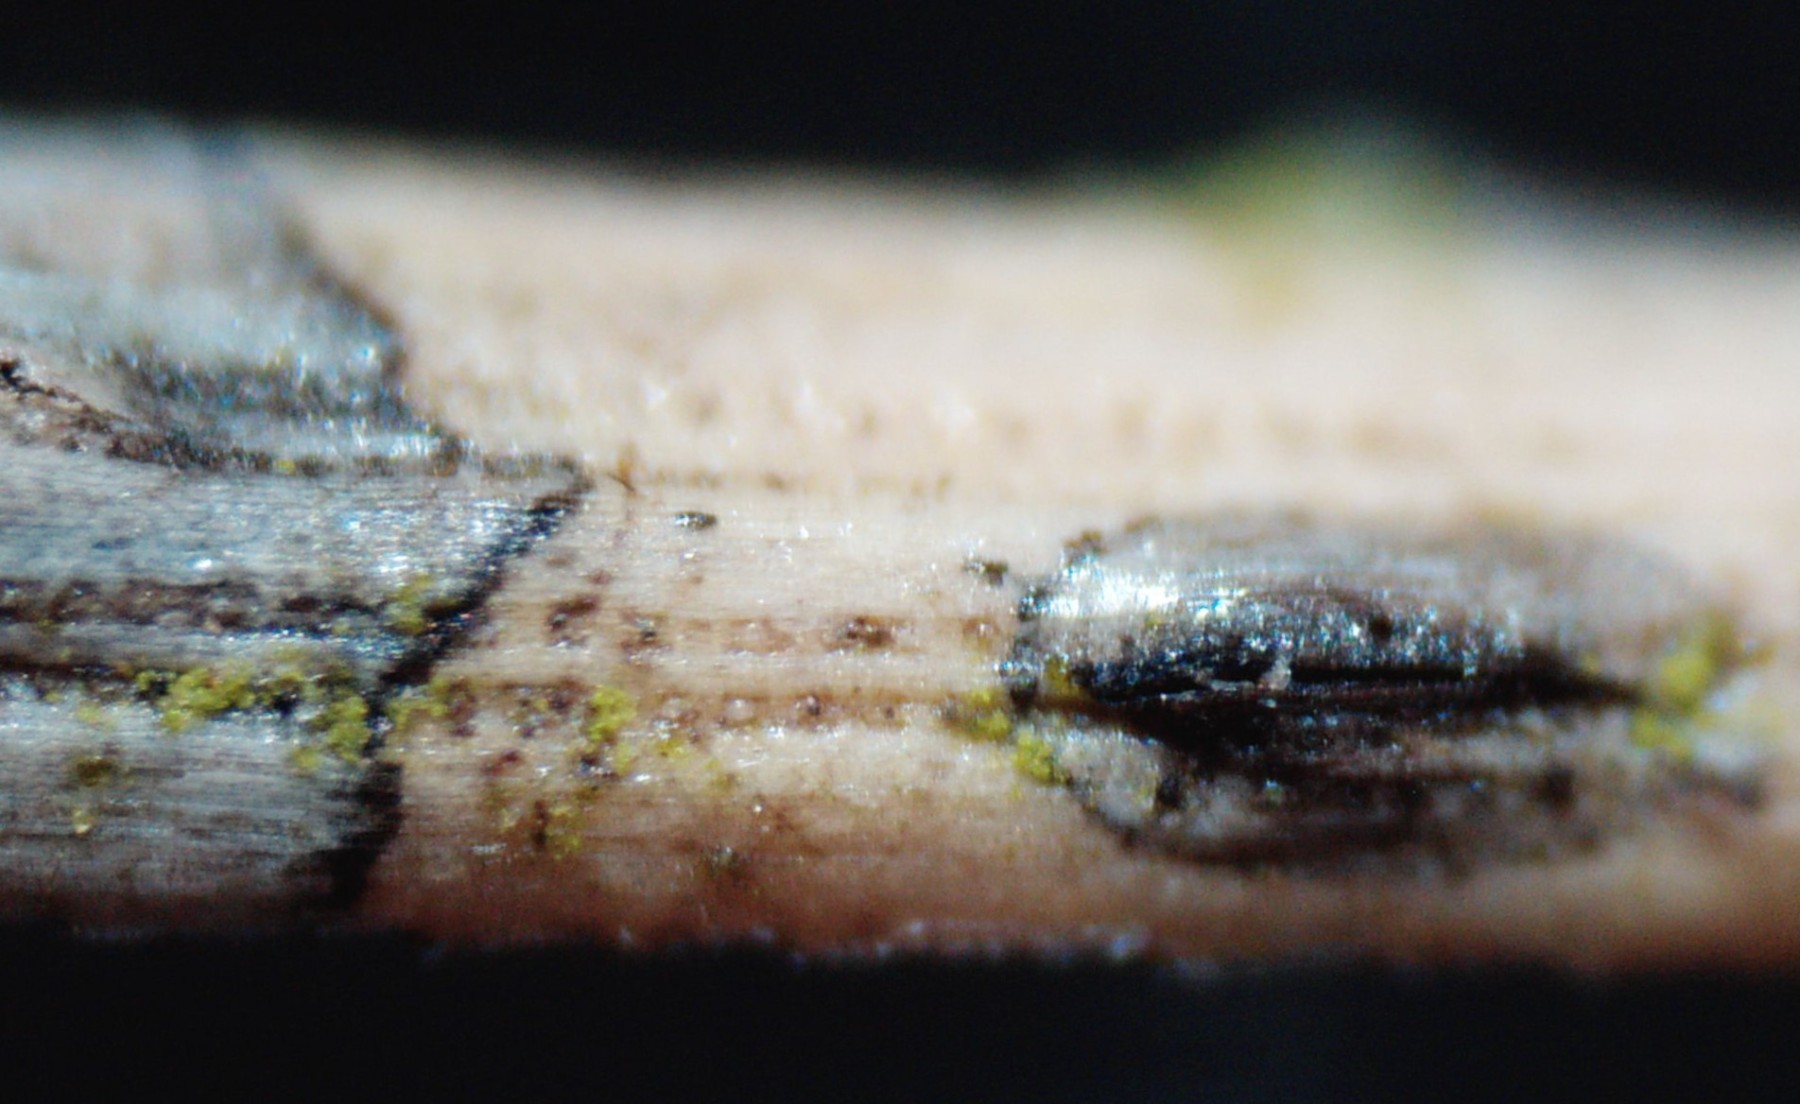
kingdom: Fungi
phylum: Ascomycota
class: Leotiomycetes
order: Rhytismatales
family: Rhytismataceae
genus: Lophodermium
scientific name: Lophodermium pinastri
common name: fyrre-fureplet
